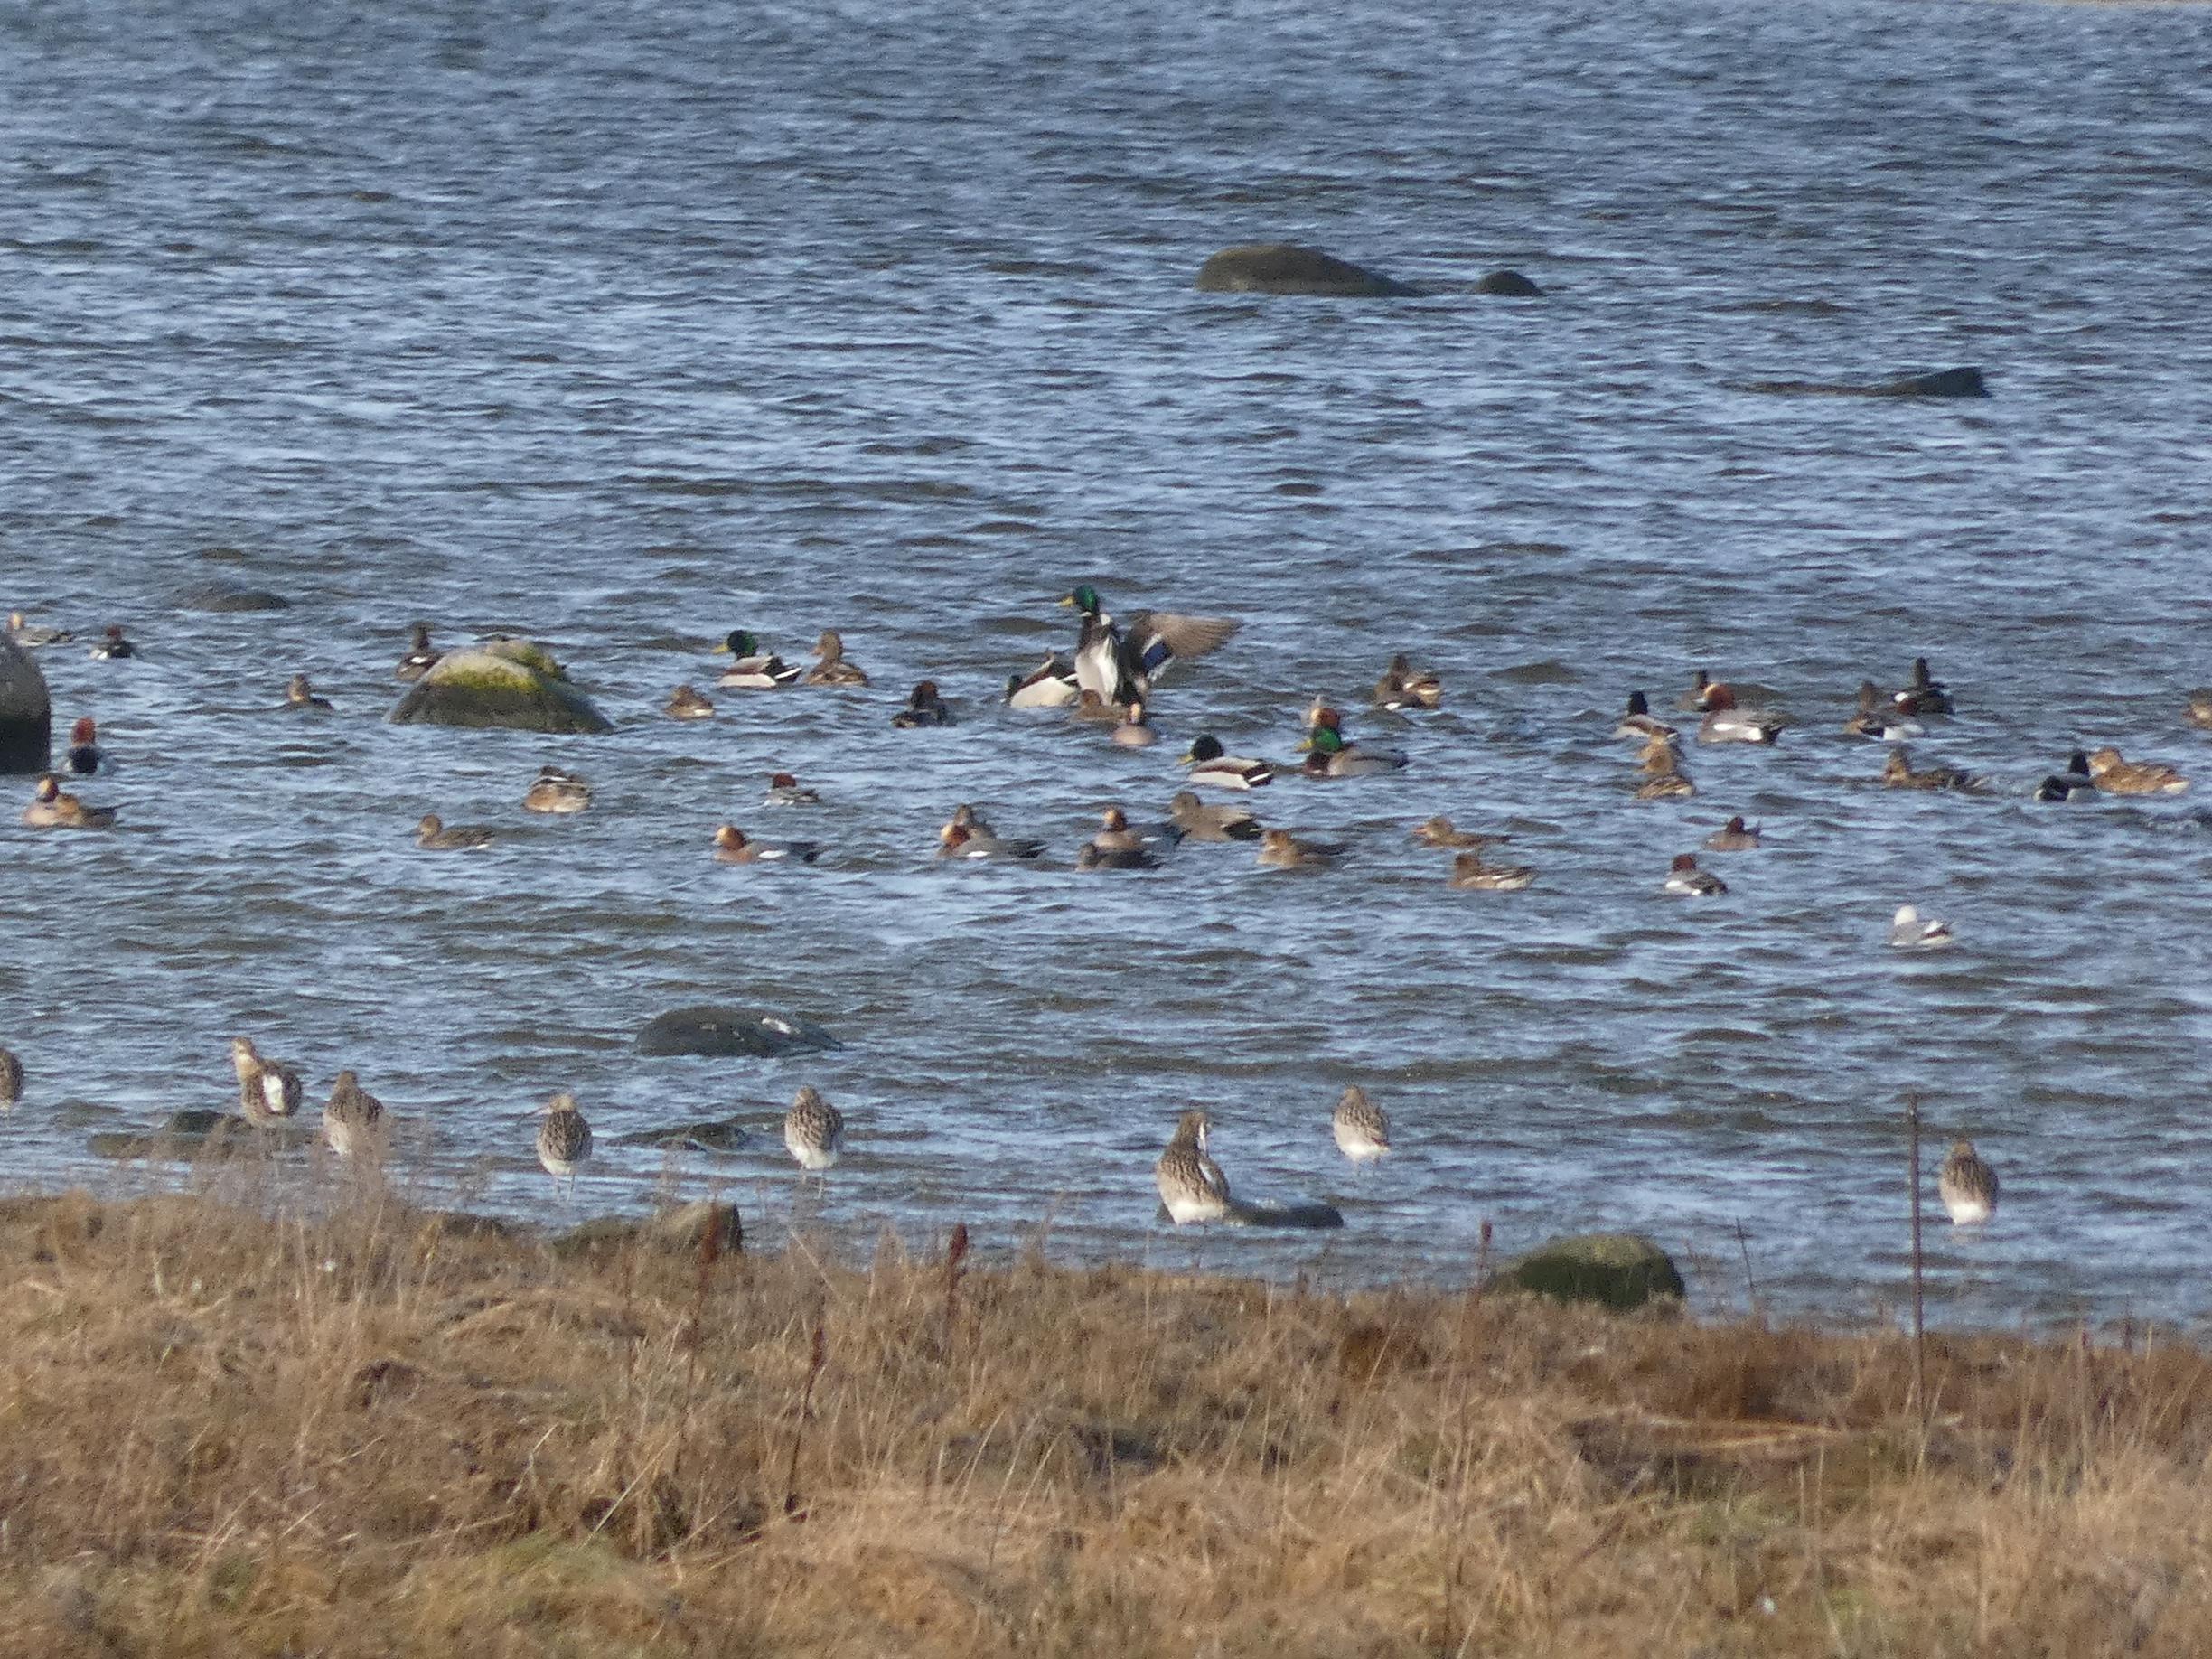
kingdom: Animalia
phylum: Chordata
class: Aves
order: Anseriformes
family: Anatidae
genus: Anas
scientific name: Anas platyrhynchos
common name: Gråand
